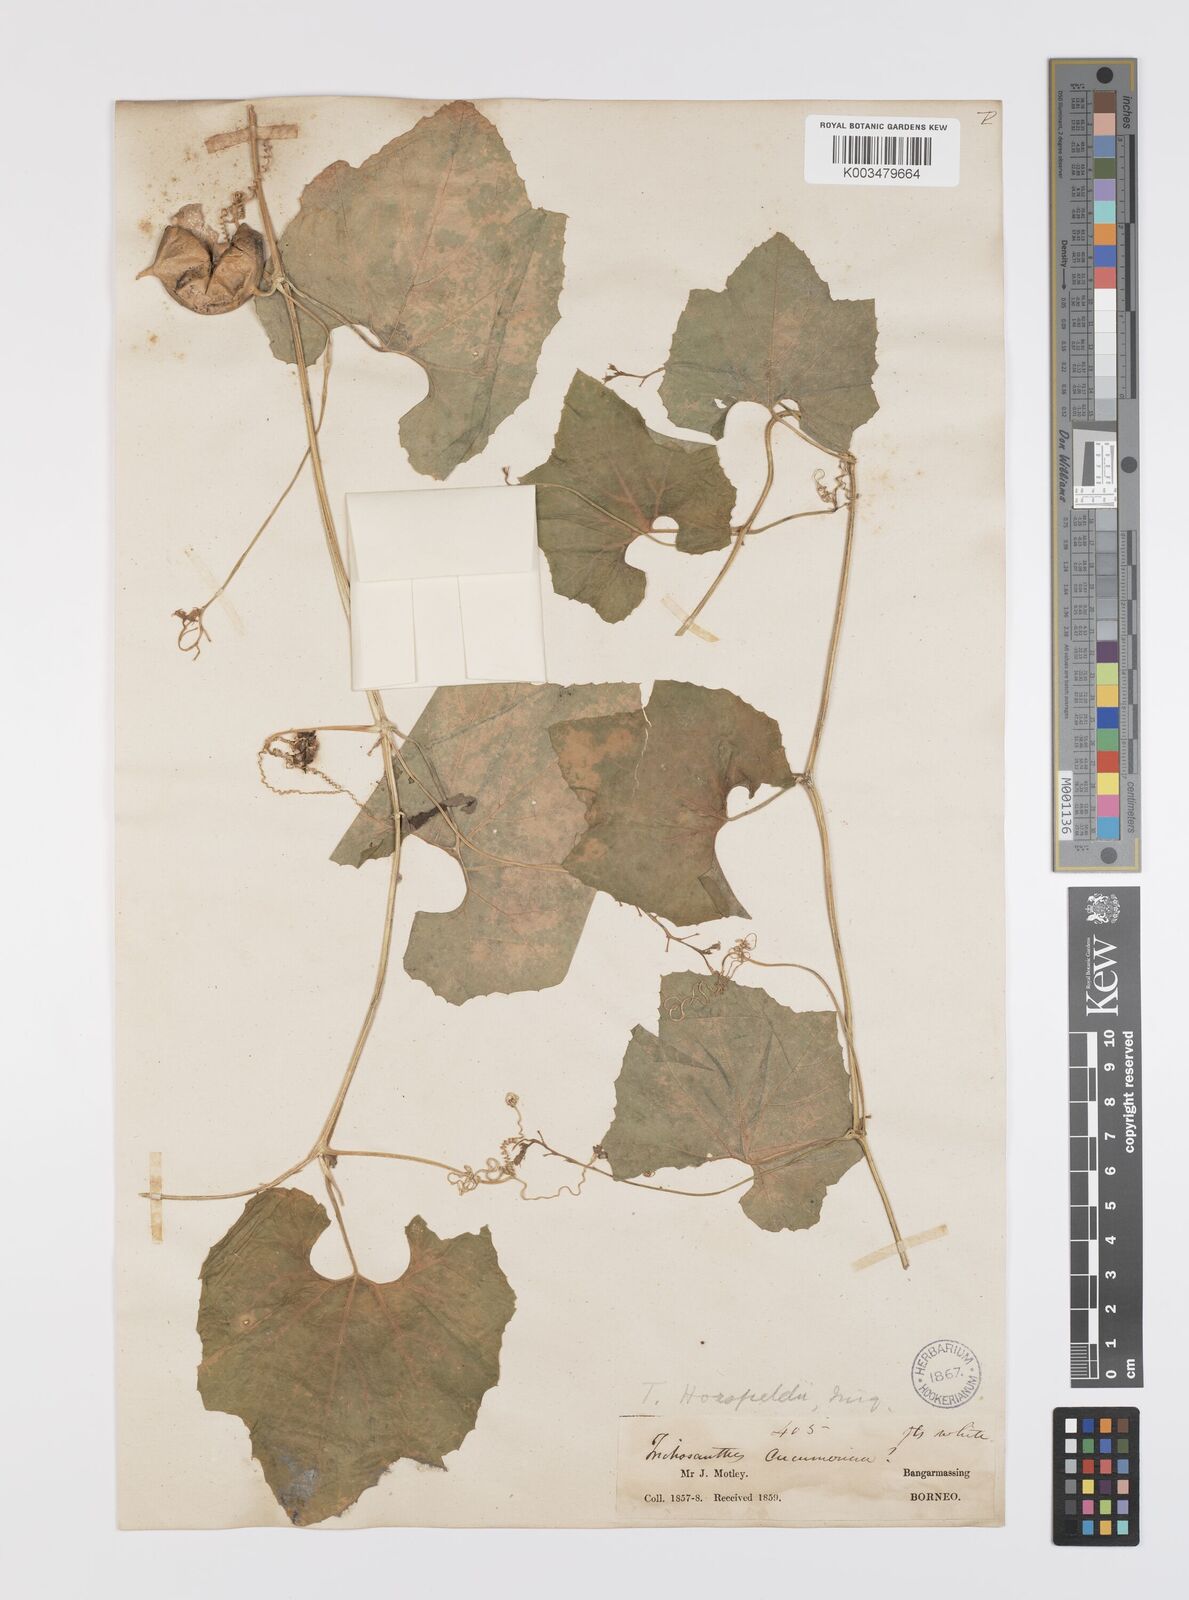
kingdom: Plantae
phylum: Tracheophyta
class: Magnoliopsida
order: Cucurbitales
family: Cucurbitaceae
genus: Trichosanthes
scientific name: Trichosanthes cucumerina
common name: Snakegourd
